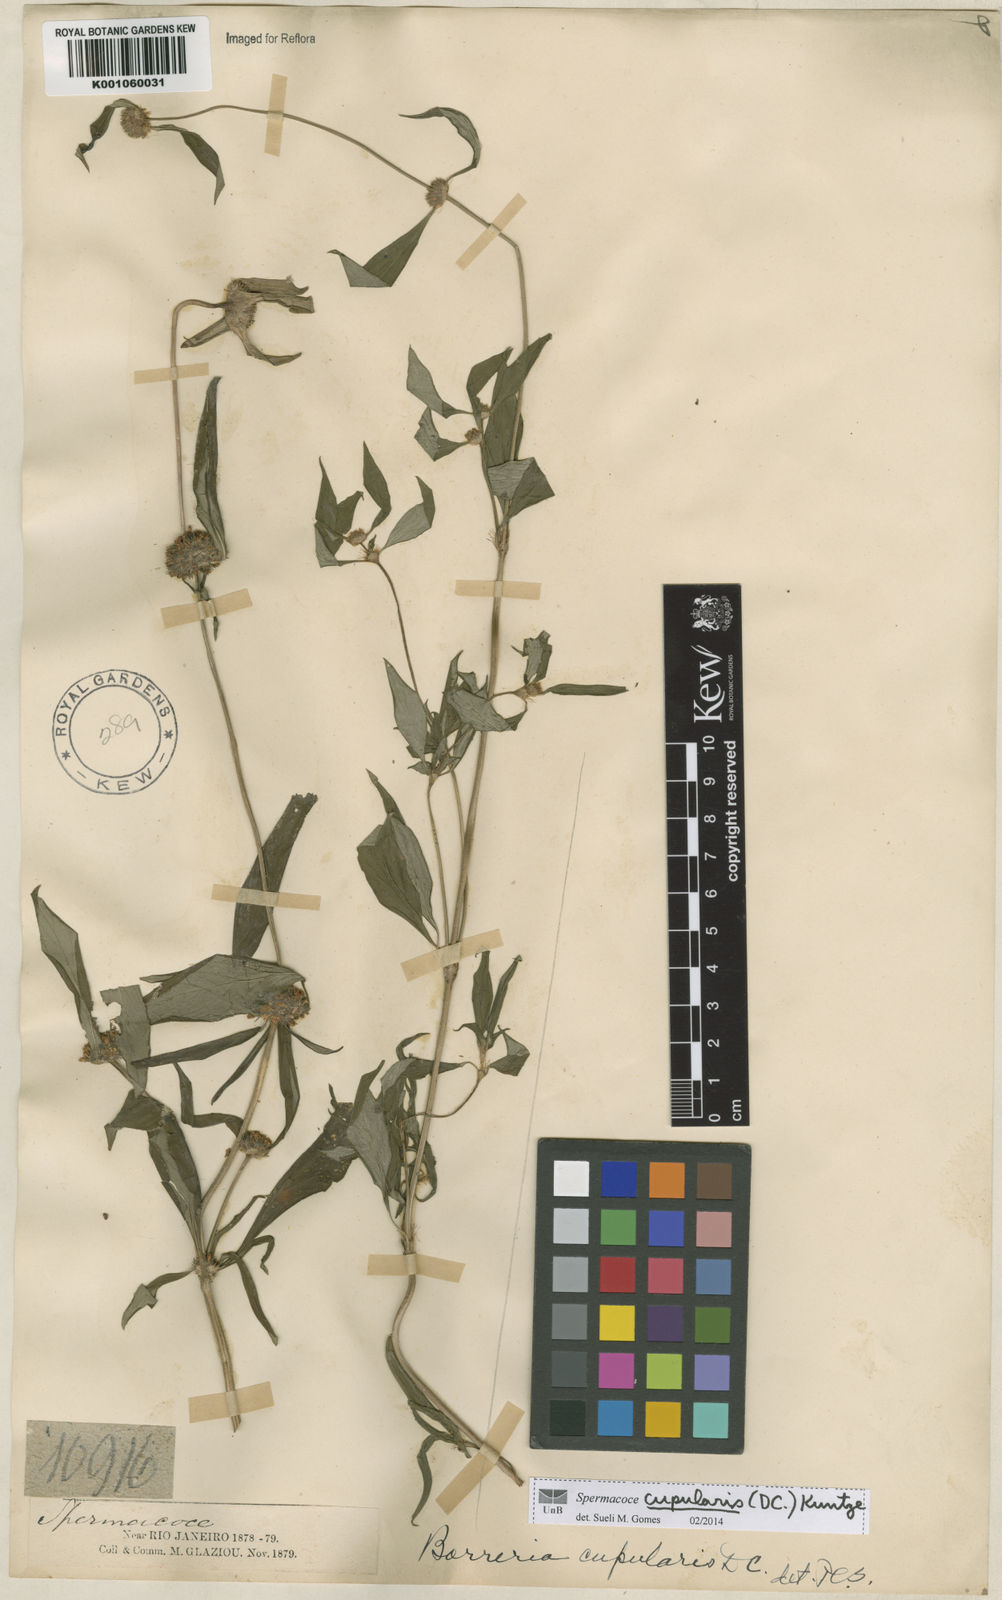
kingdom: Plantae
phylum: Tracheophyta
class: Magnoliopsida
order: Gentianales
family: Rubiaceae
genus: Spermacoce
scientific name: Spermacoce cupularis
